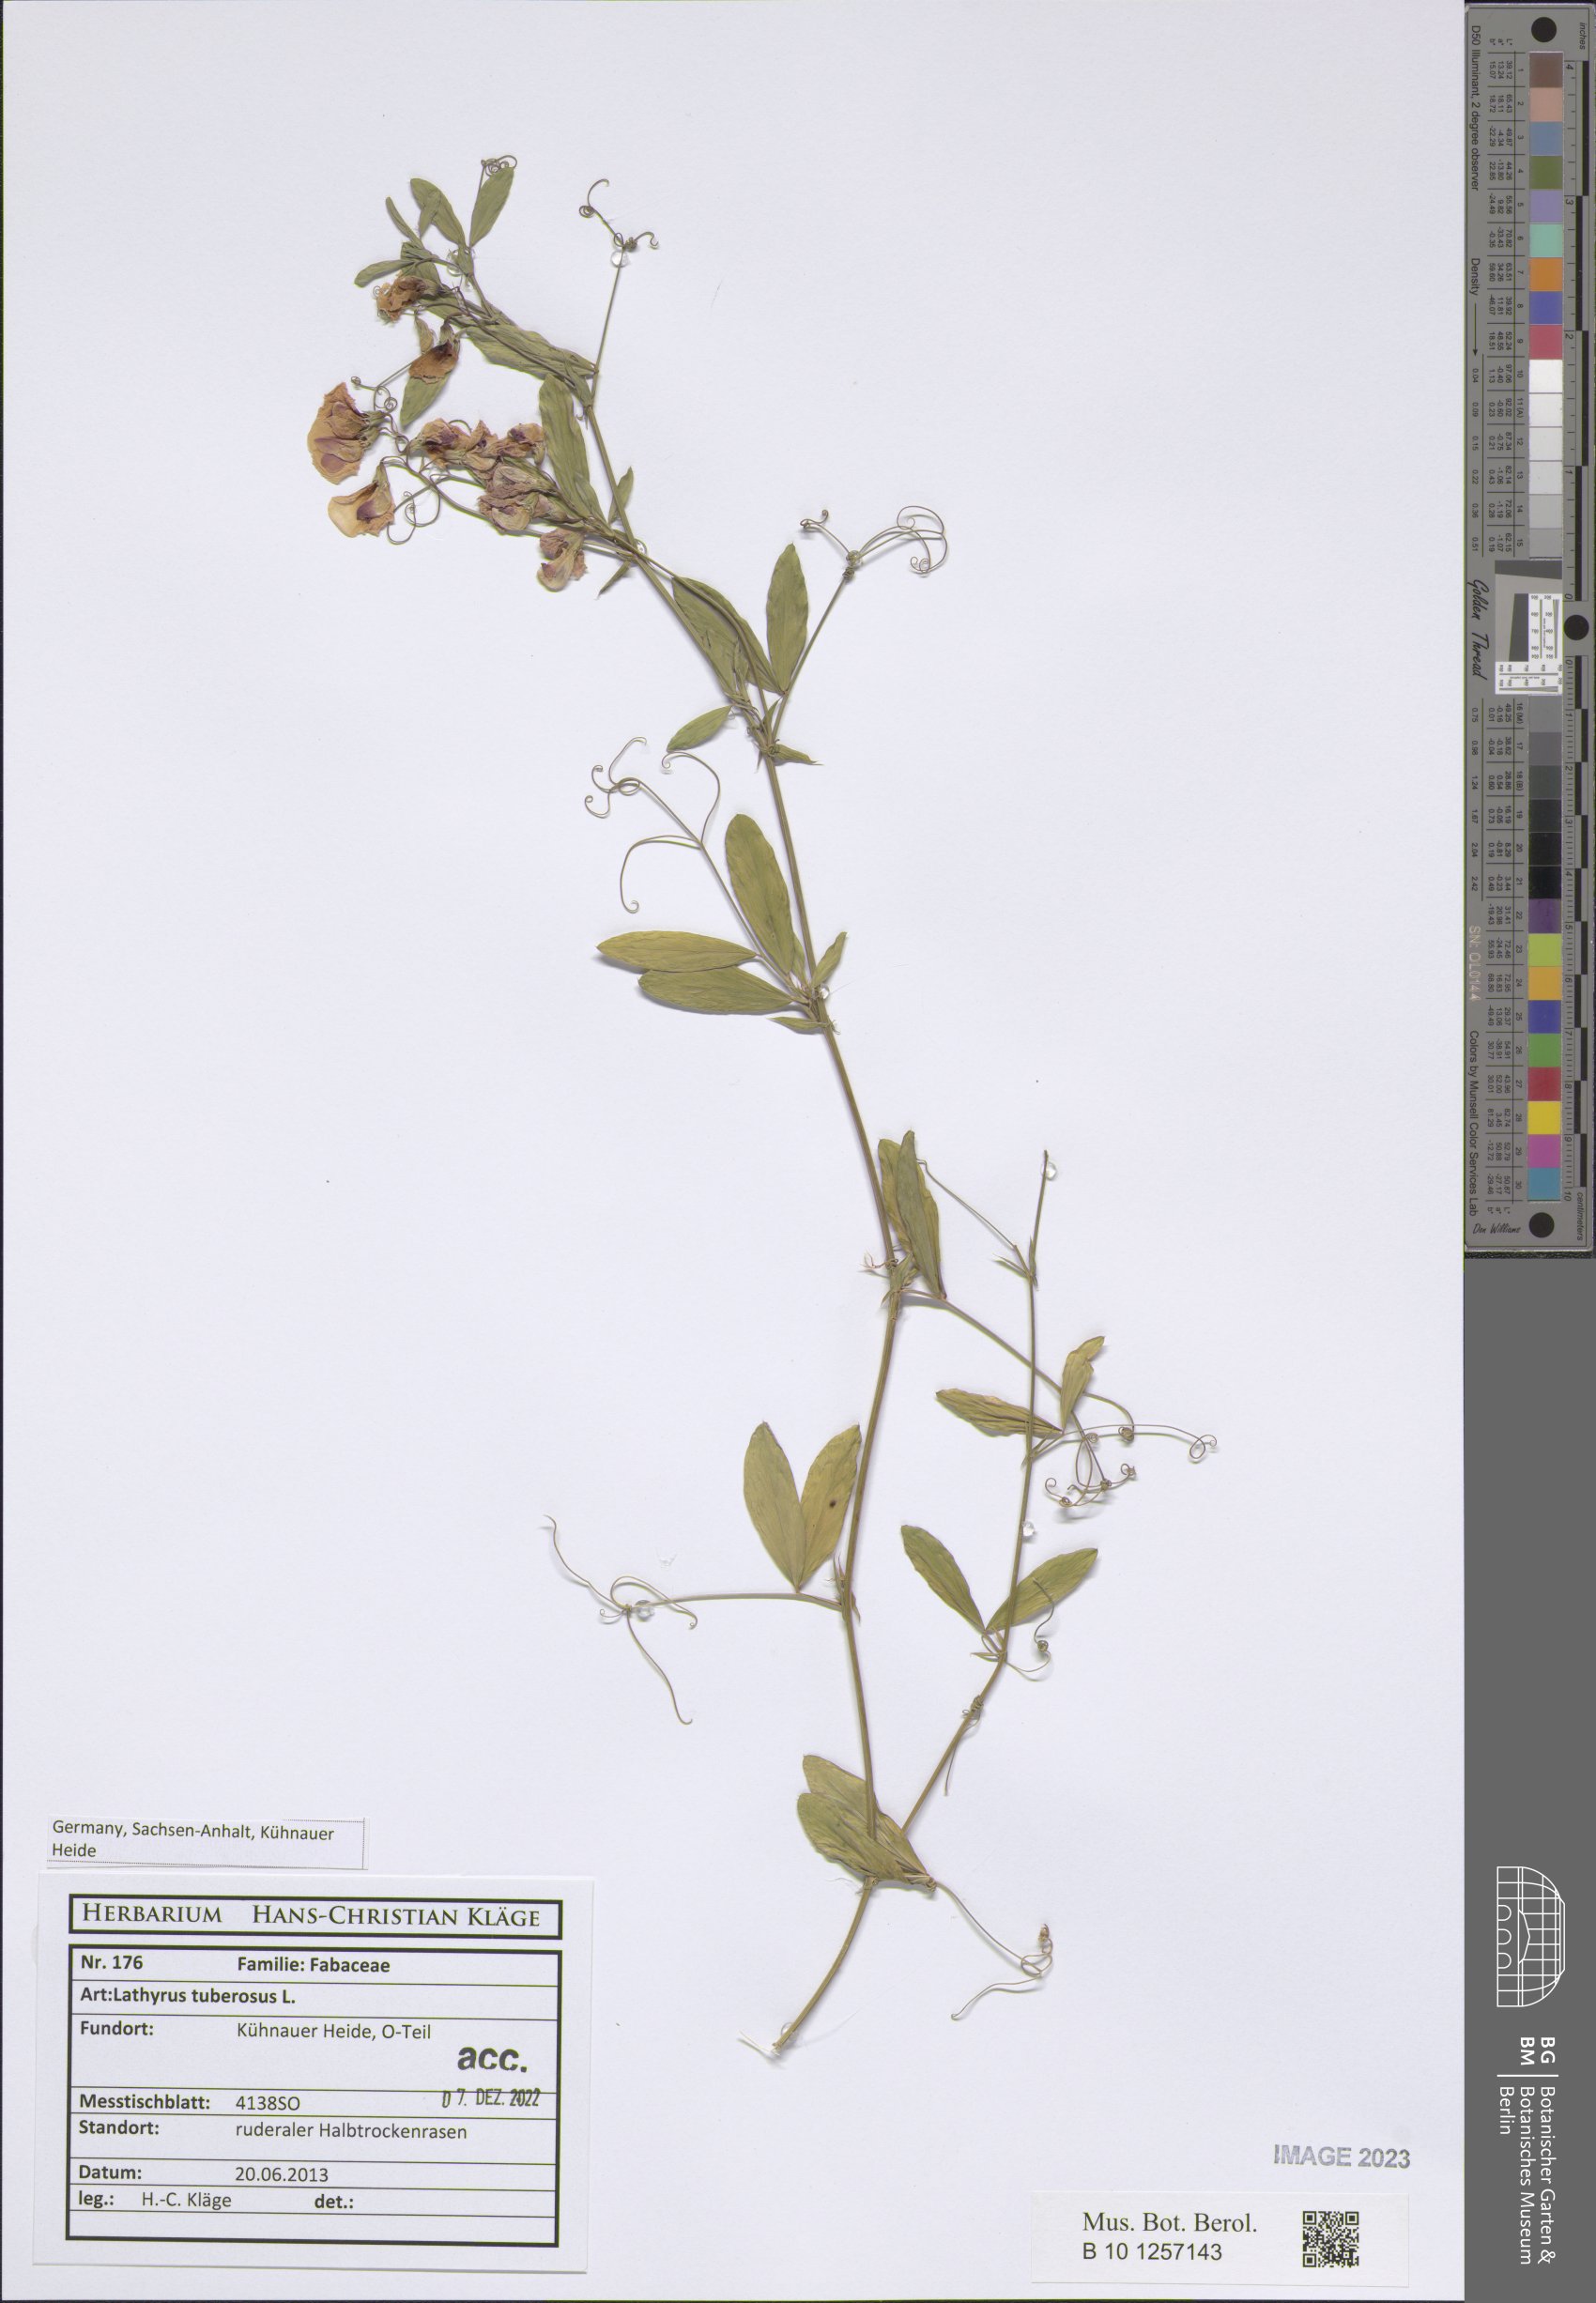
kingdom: Plantae
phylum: Tracheophyta
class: Magnoliopsida
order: Fabales
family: Fabaceae
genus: Lathyrus
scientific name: Lathyrus tuberosus
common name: Tuberous pea
